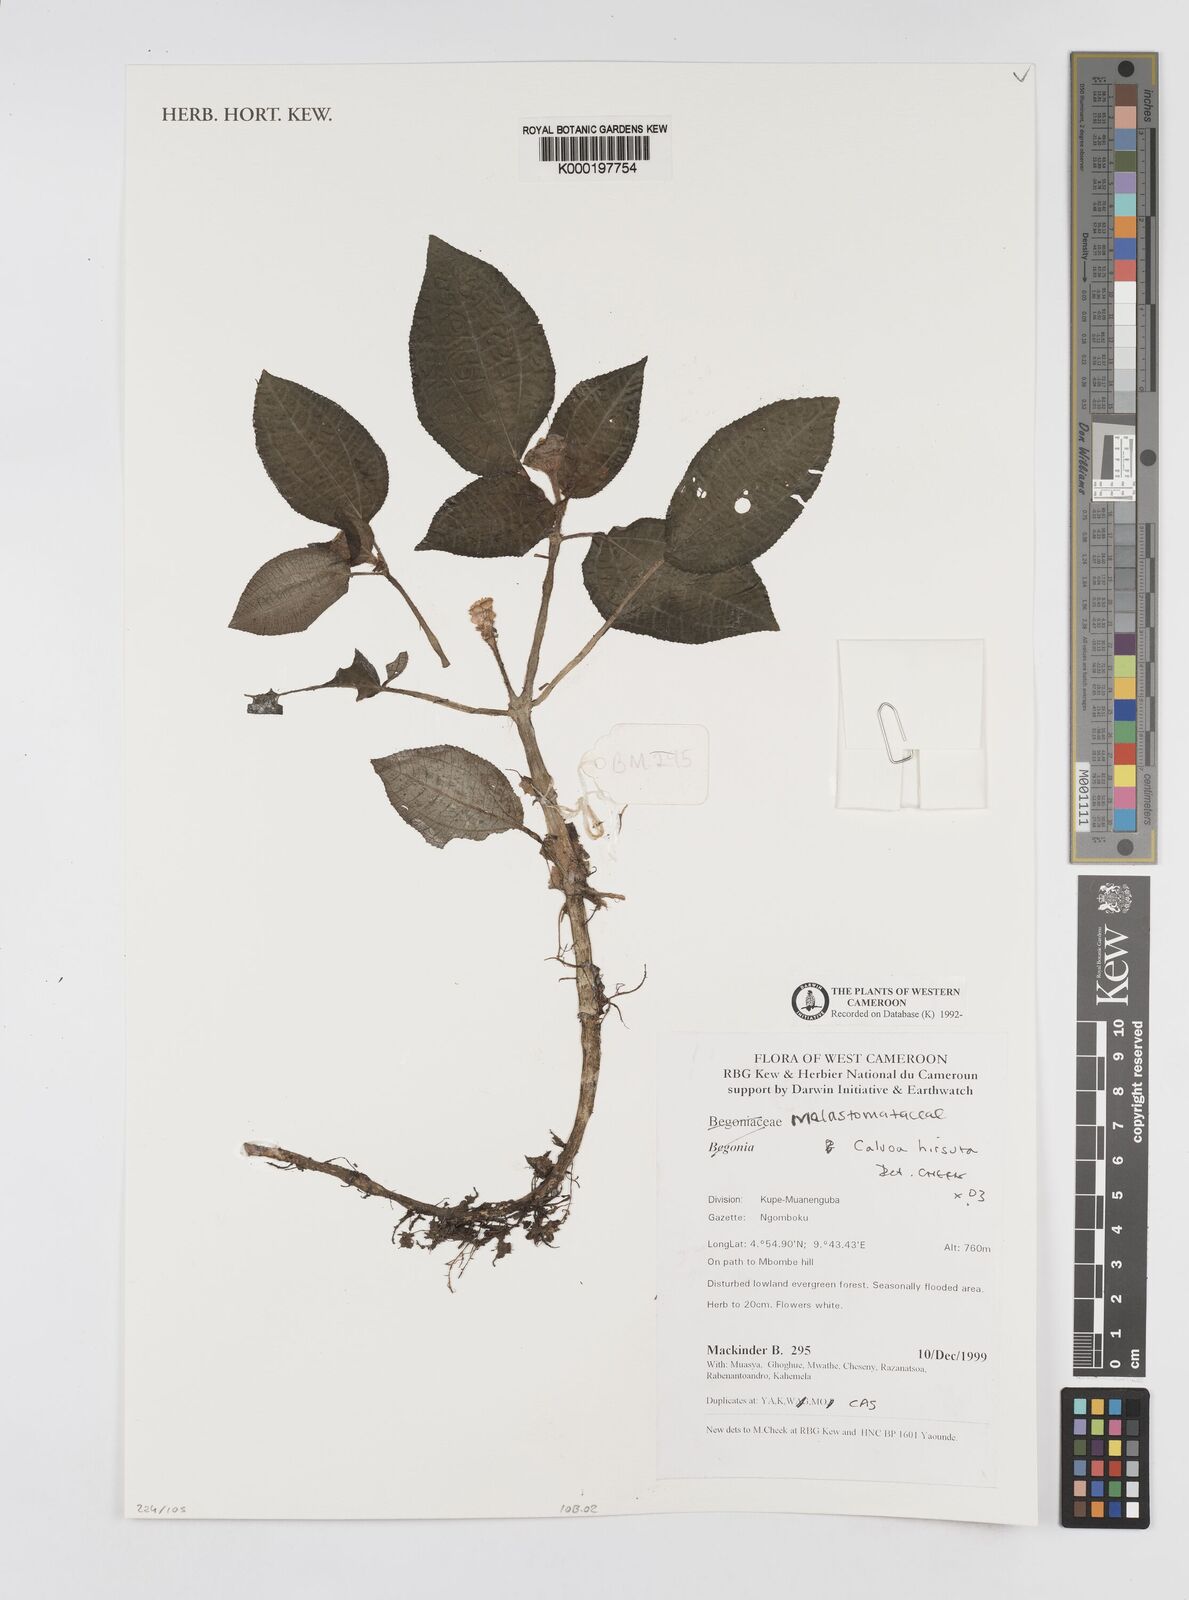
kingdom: Plantae
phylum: Tracheophyta
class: Magnoliopsida
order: Myrtales
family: Melastomataceae
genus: Calvoa
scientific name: Calvoa
